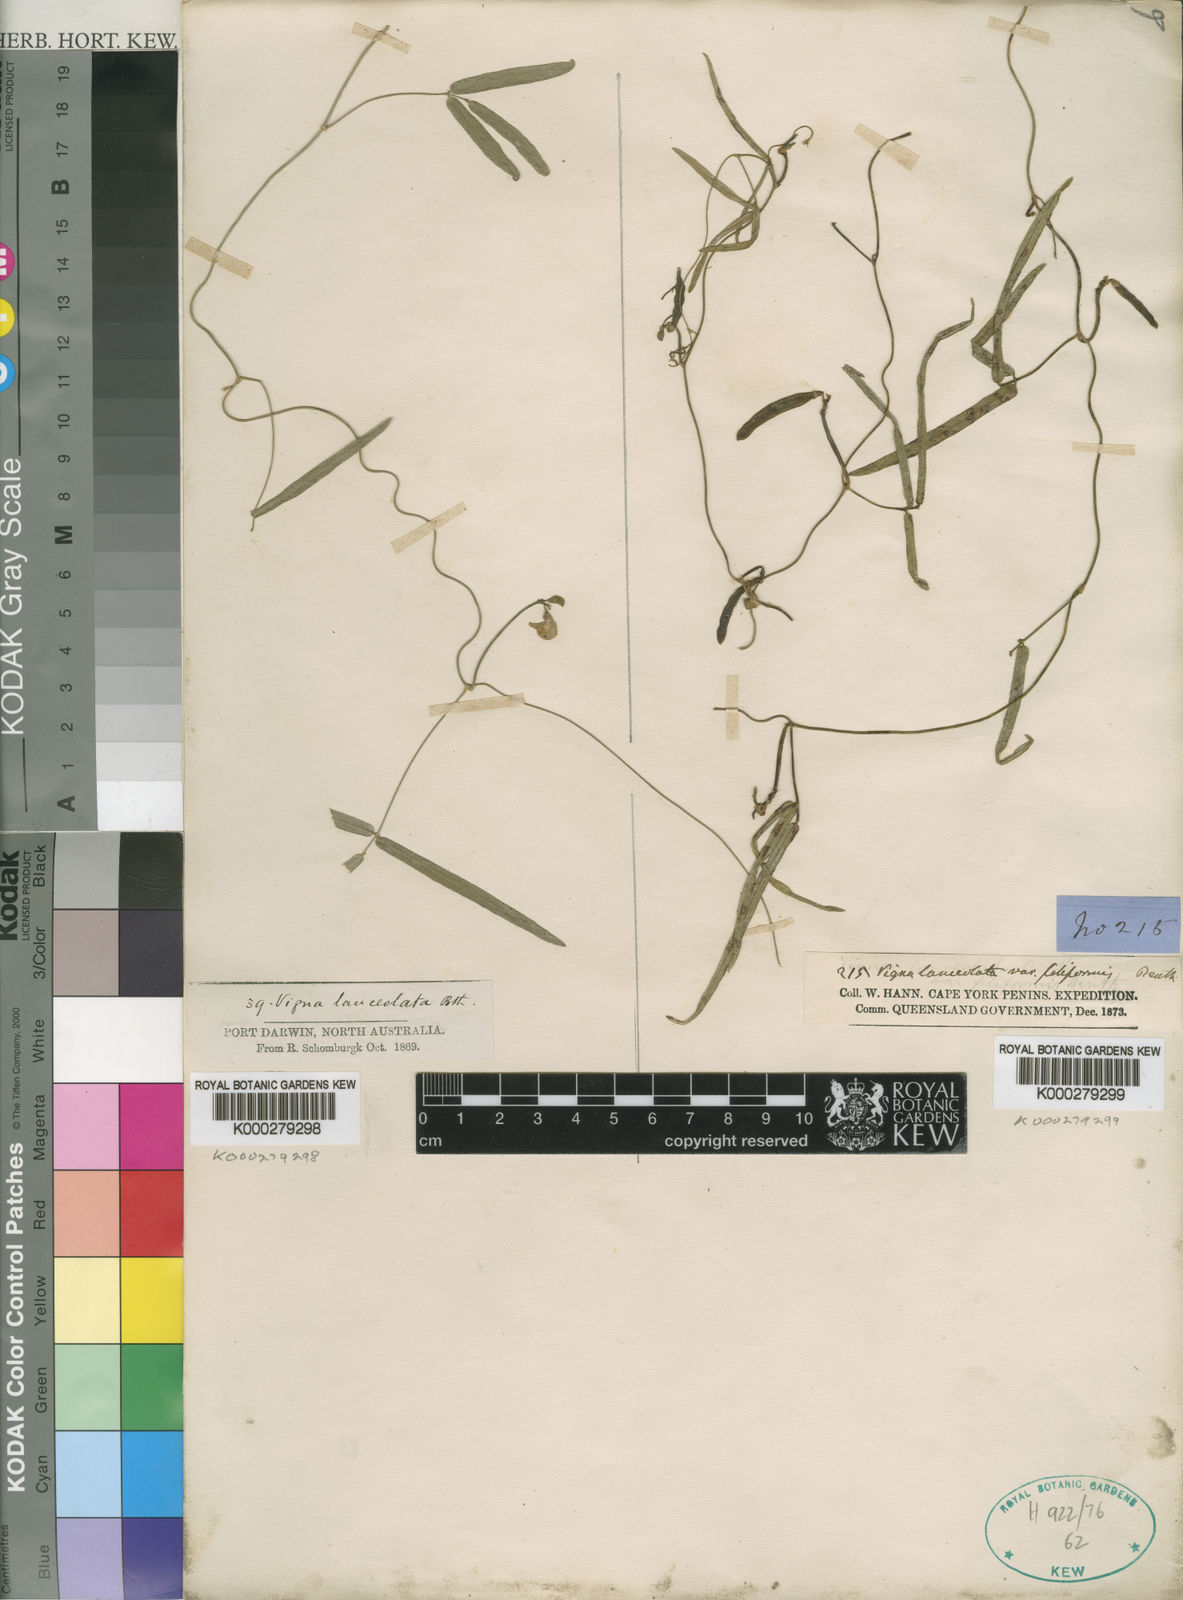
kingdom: Plantae
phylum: Tracheophyta
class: Magnoliopsida
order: Fabales
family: Fabaceae
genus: Vigna
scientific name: Vigna lanceolata
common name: Maloga-bean
